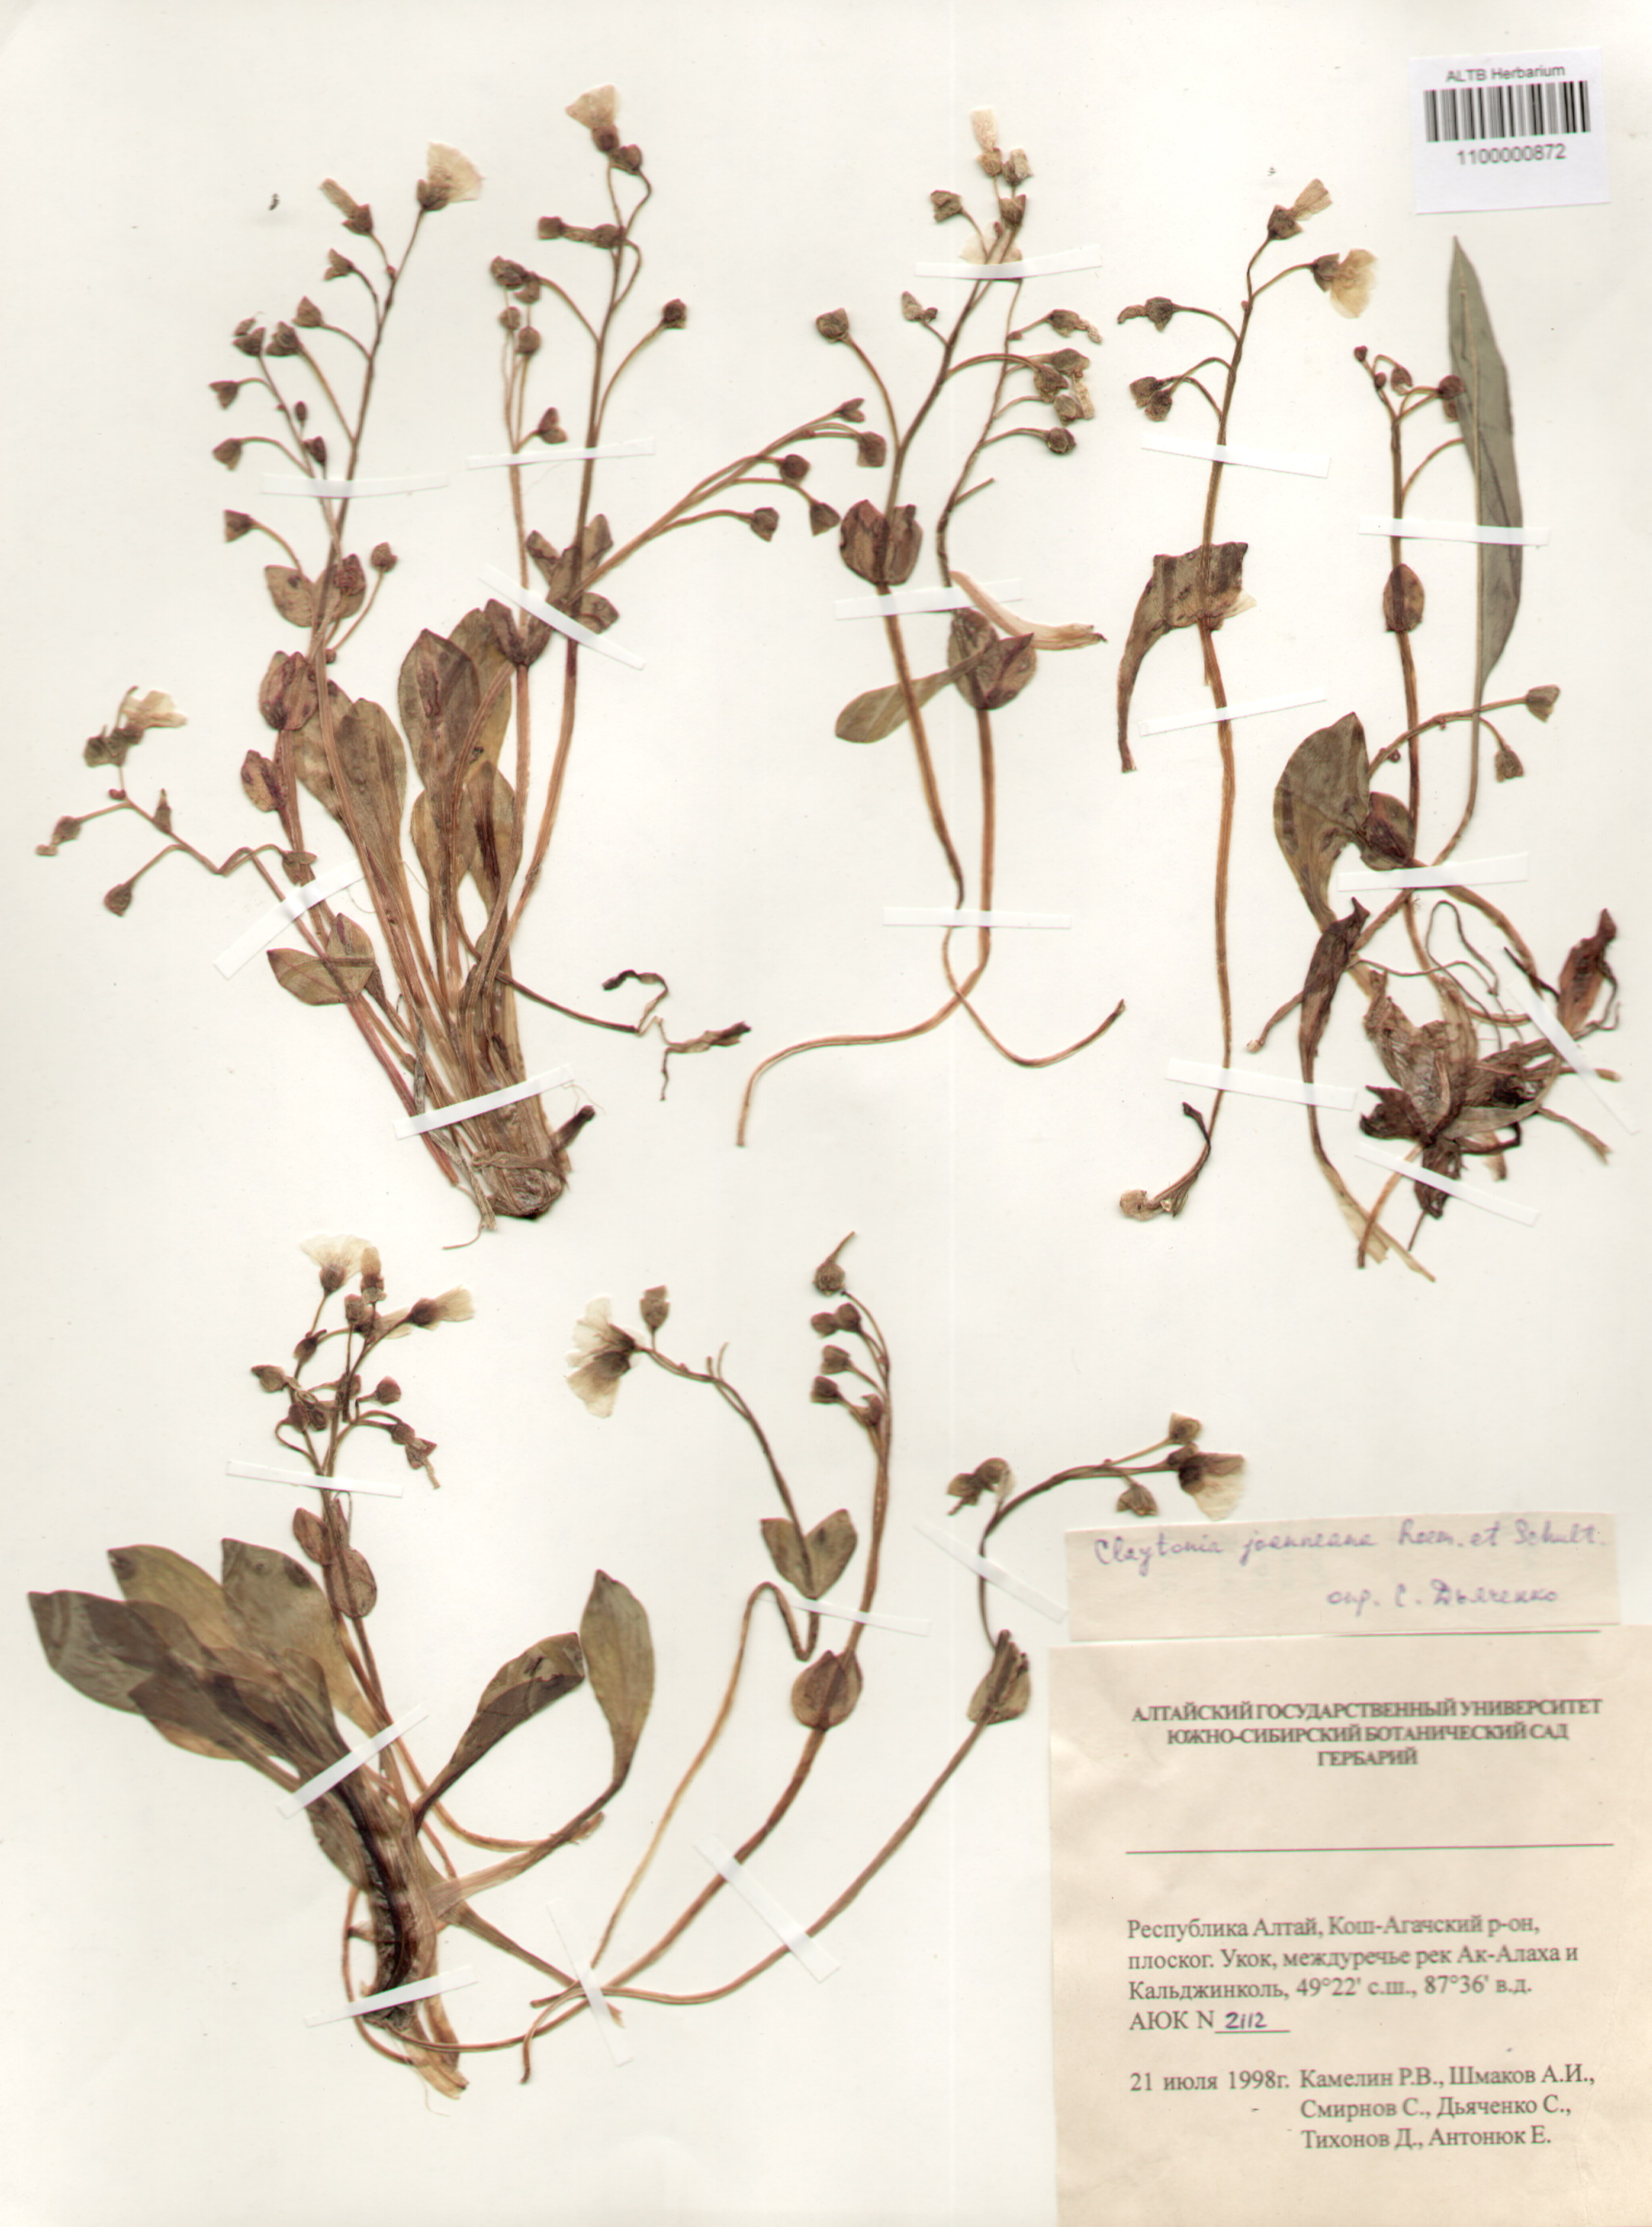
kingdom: Plantae
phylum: Tracheophyta
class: Magnoliopsida
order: Caryophyllales
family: Montiaceae
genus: Claytonia
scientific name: Claytonia joanneana
